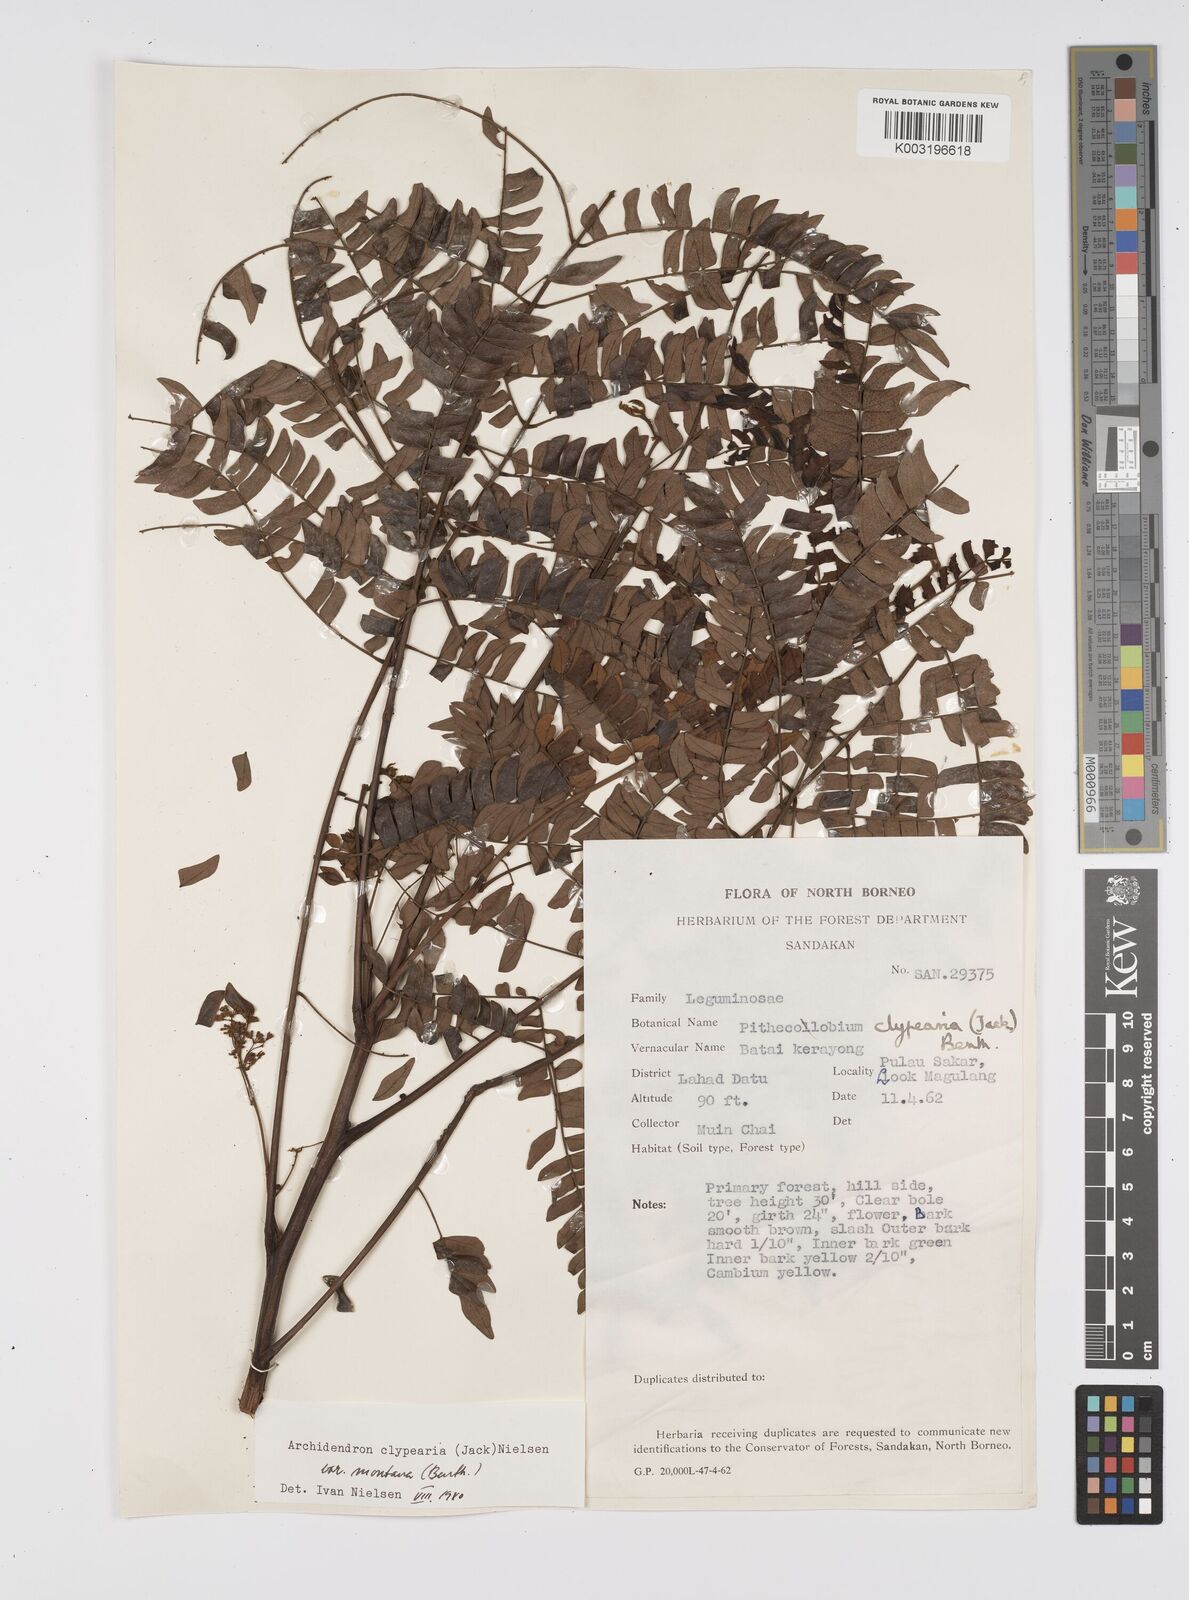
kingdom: Plantae
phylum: Tracheophyta
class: Magnoliopsida
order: Fabales
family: Fabaceae
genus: Archidendron
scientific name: Archidendron clypearia
